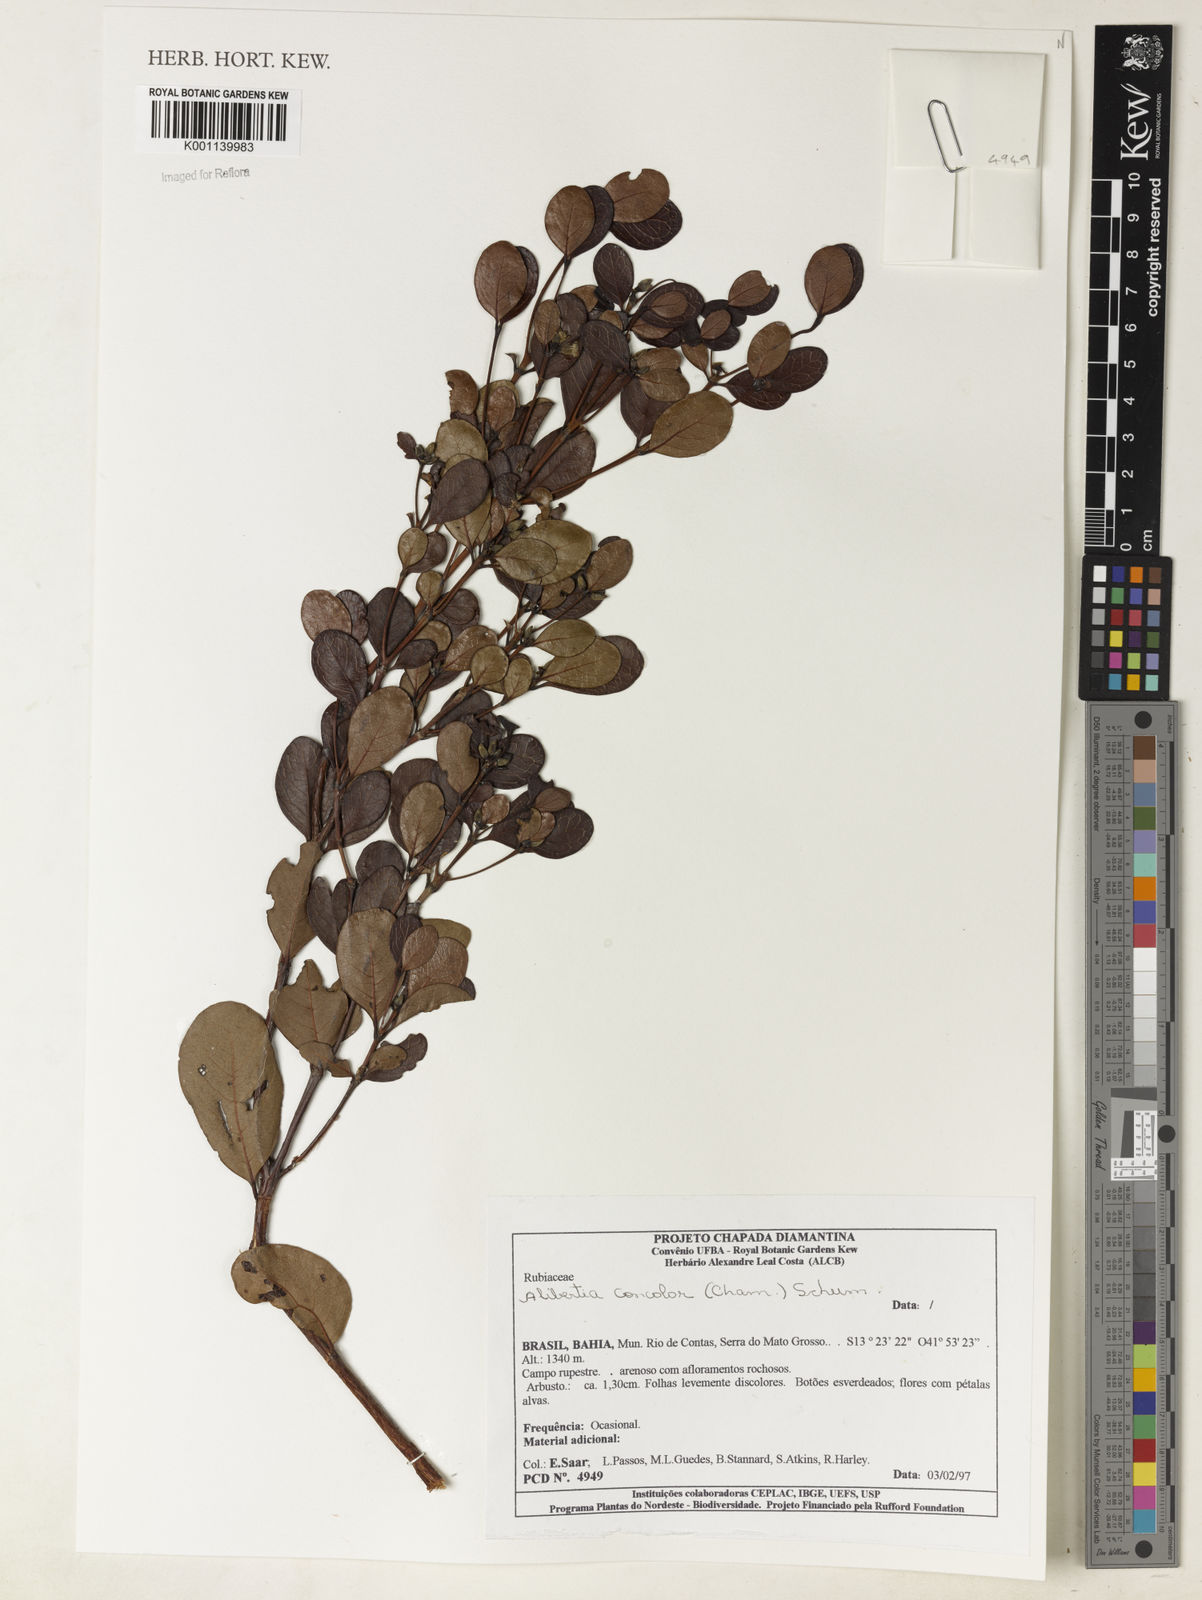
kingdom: Plantae
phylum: Tracheophyta
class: Magnoliopsida
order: Gentianales
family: Rubiaceae
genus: Cordiera
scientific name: Cordiera concolor
